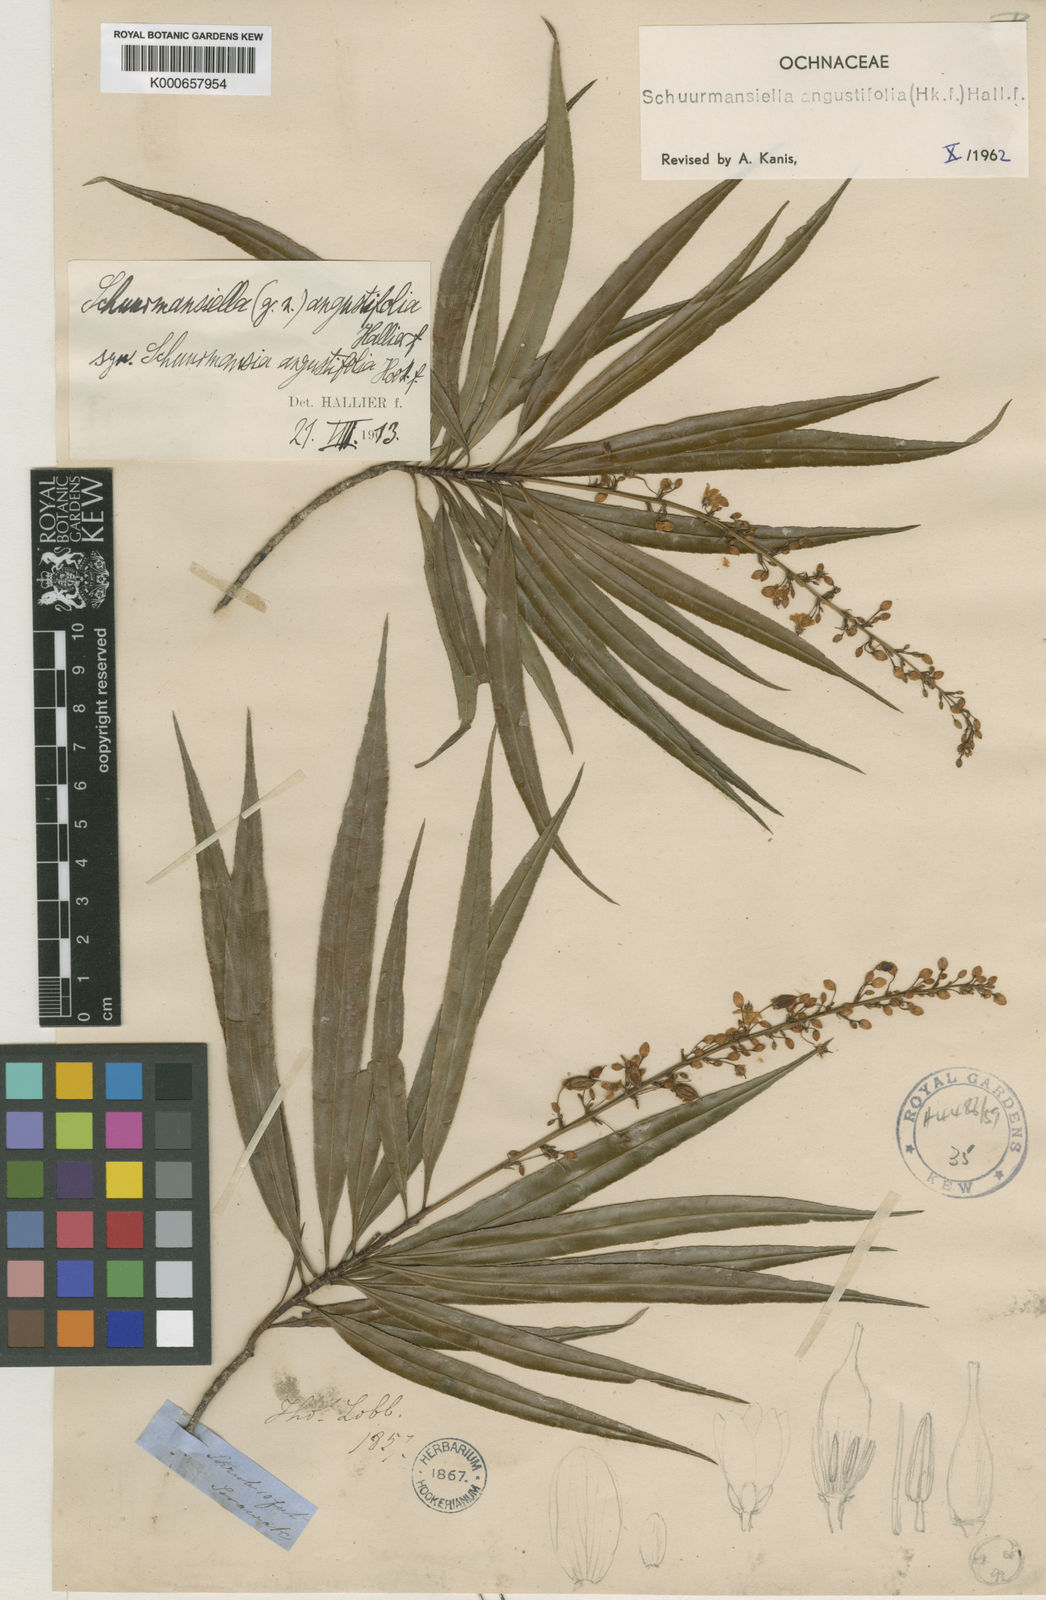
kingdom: Plantae
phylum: Tracheophyta
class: Magnoliopsida
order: Malpighiales
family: Ochnaceae
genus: Schuurmansiella
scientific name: Schuurmansiella angustifolia
